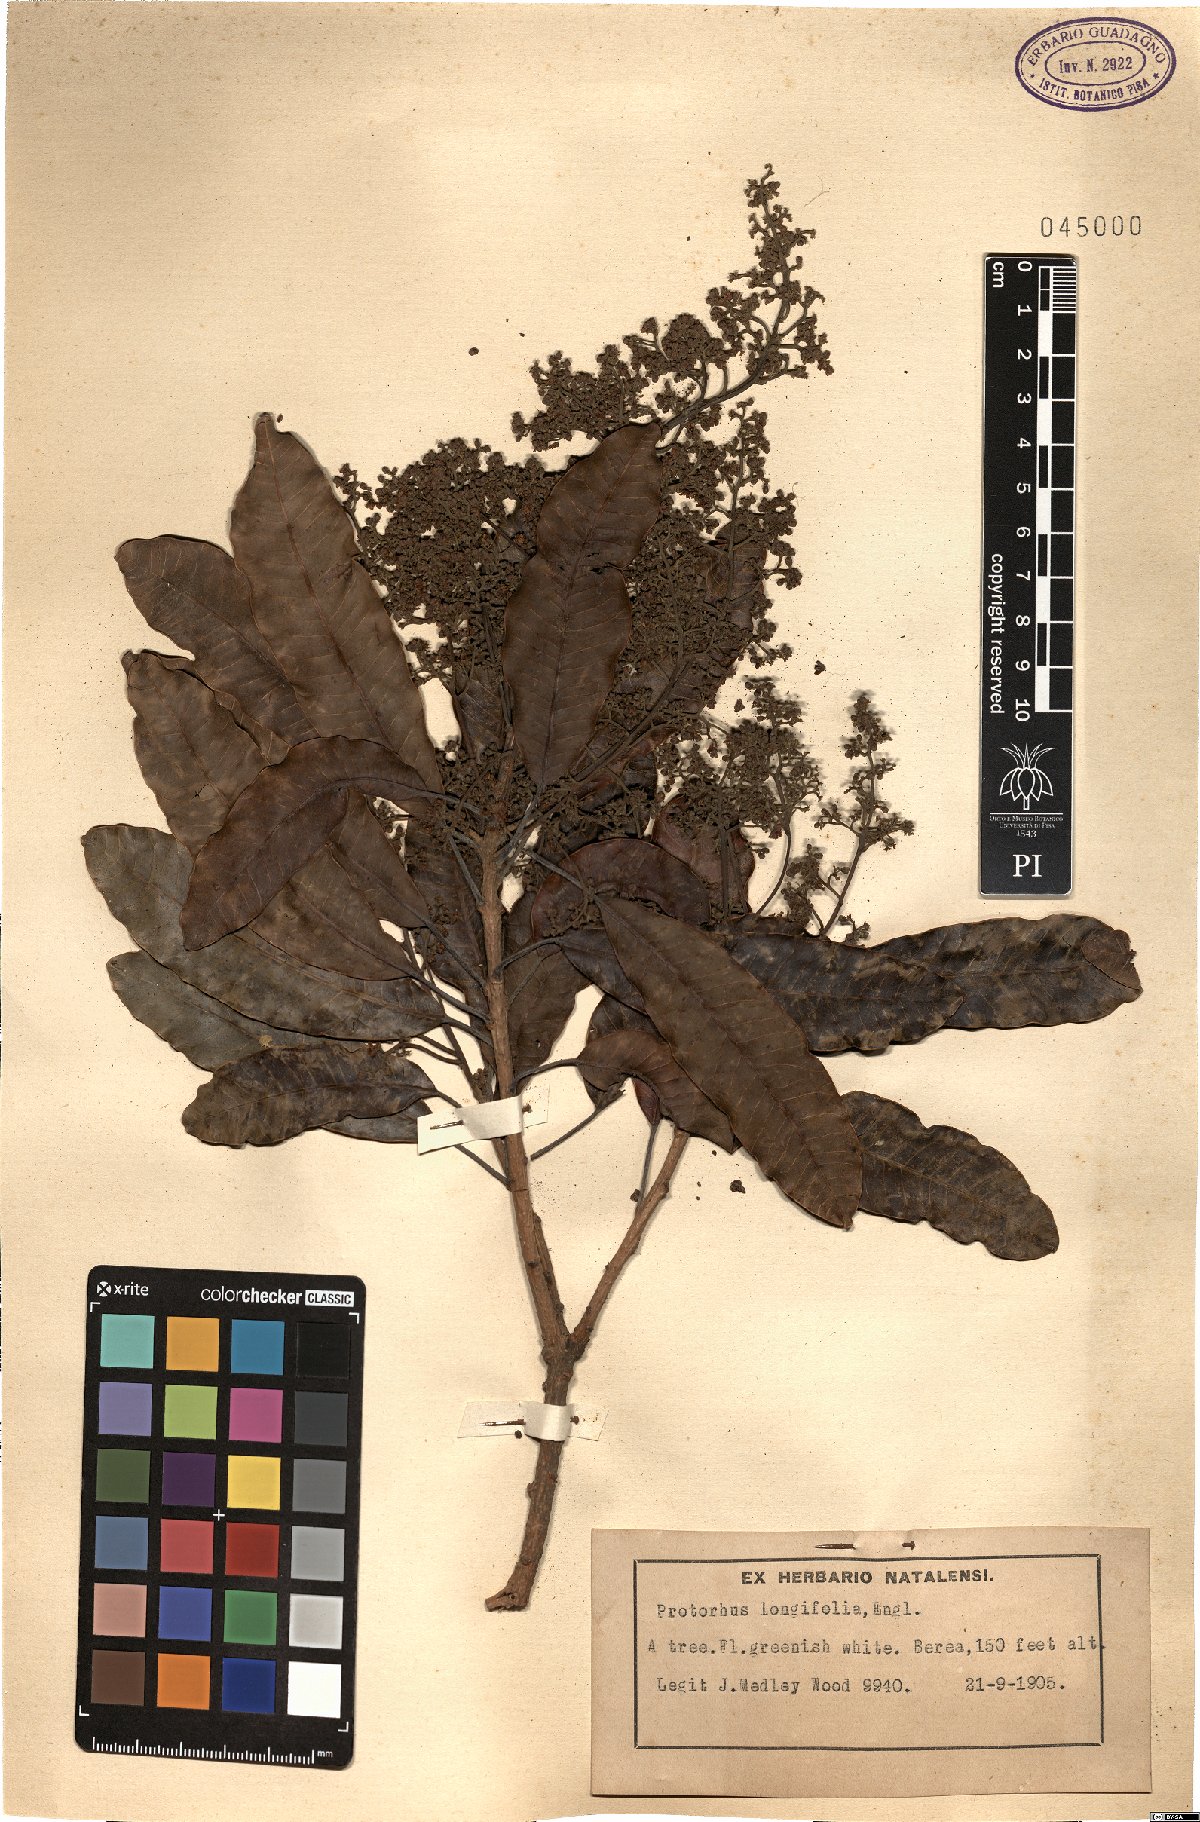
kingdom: Plantae
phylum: Tracheophyta
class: Magnoliopsida
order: Sapindales
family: Anacardiaceae
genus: Protorhus
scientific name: Protorhus longifolia
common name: Red-beech
